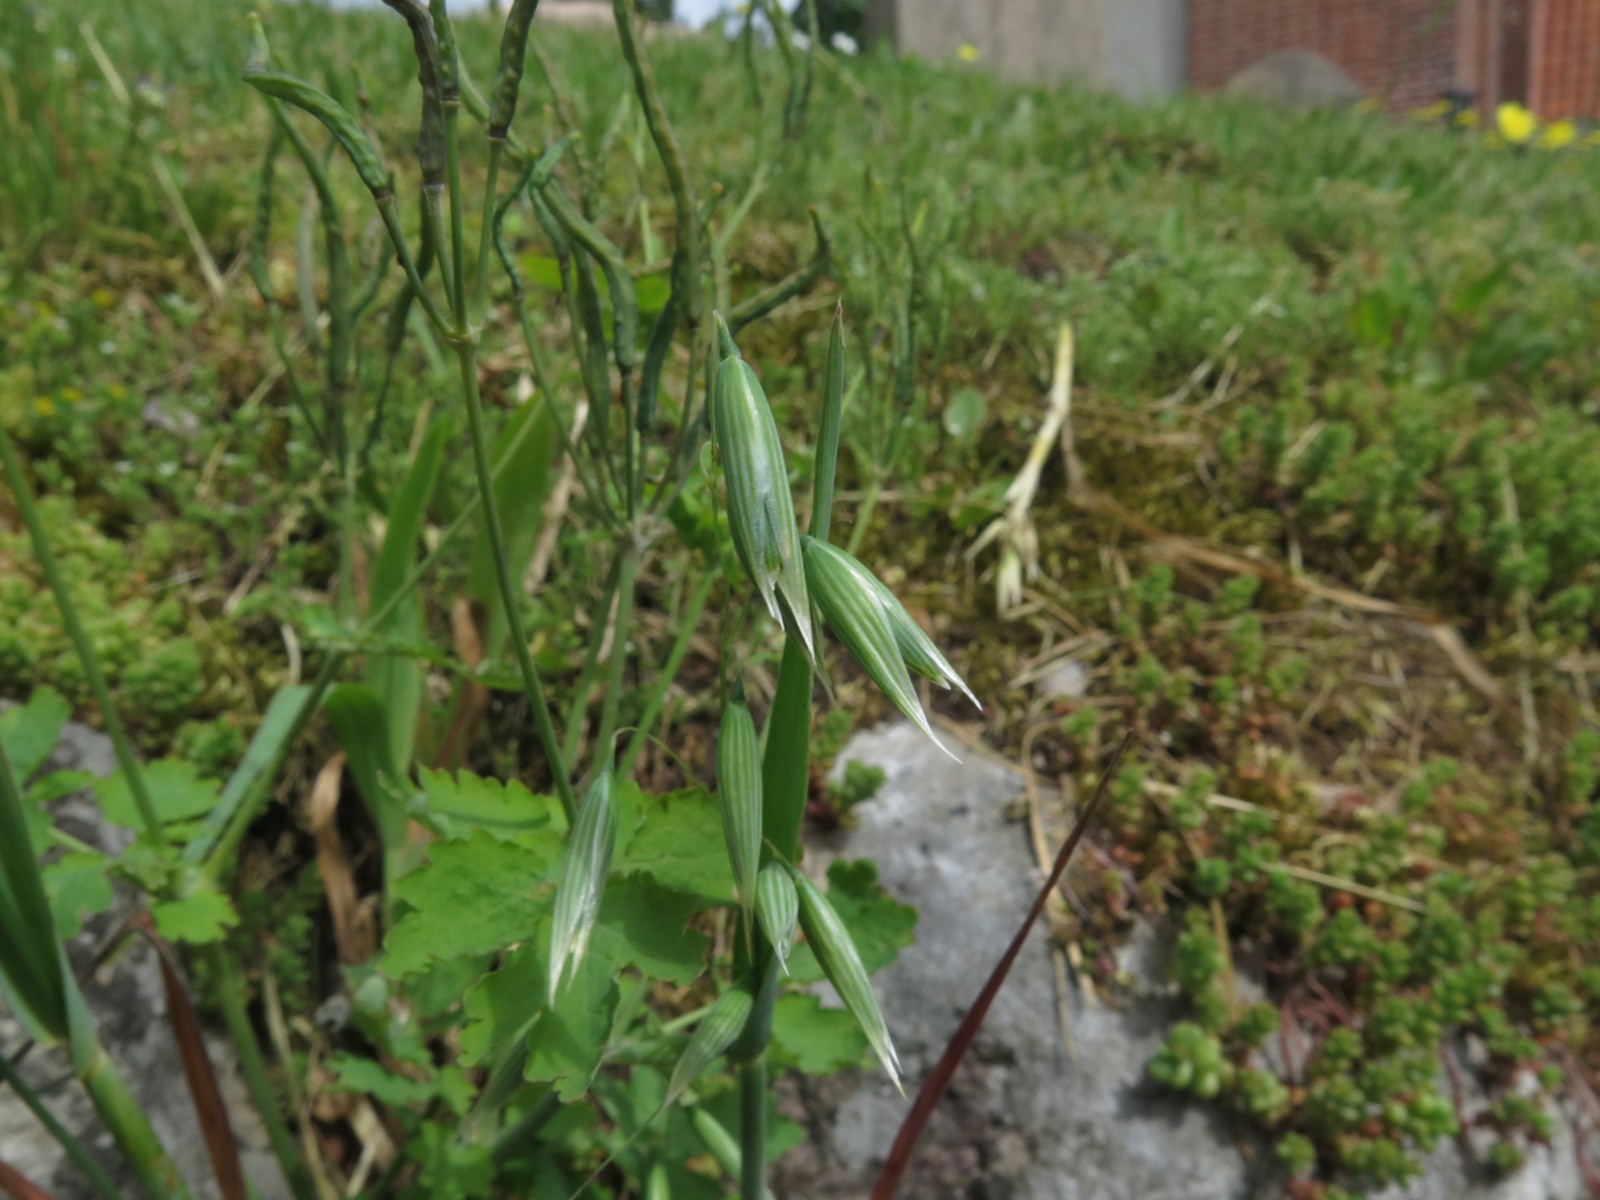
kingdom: Fungi
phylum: Ascomycota
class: Dothideomycetes
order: Capnodiales
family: Cladosporiaceae
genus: Cladosporium
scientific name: Cladosporium
